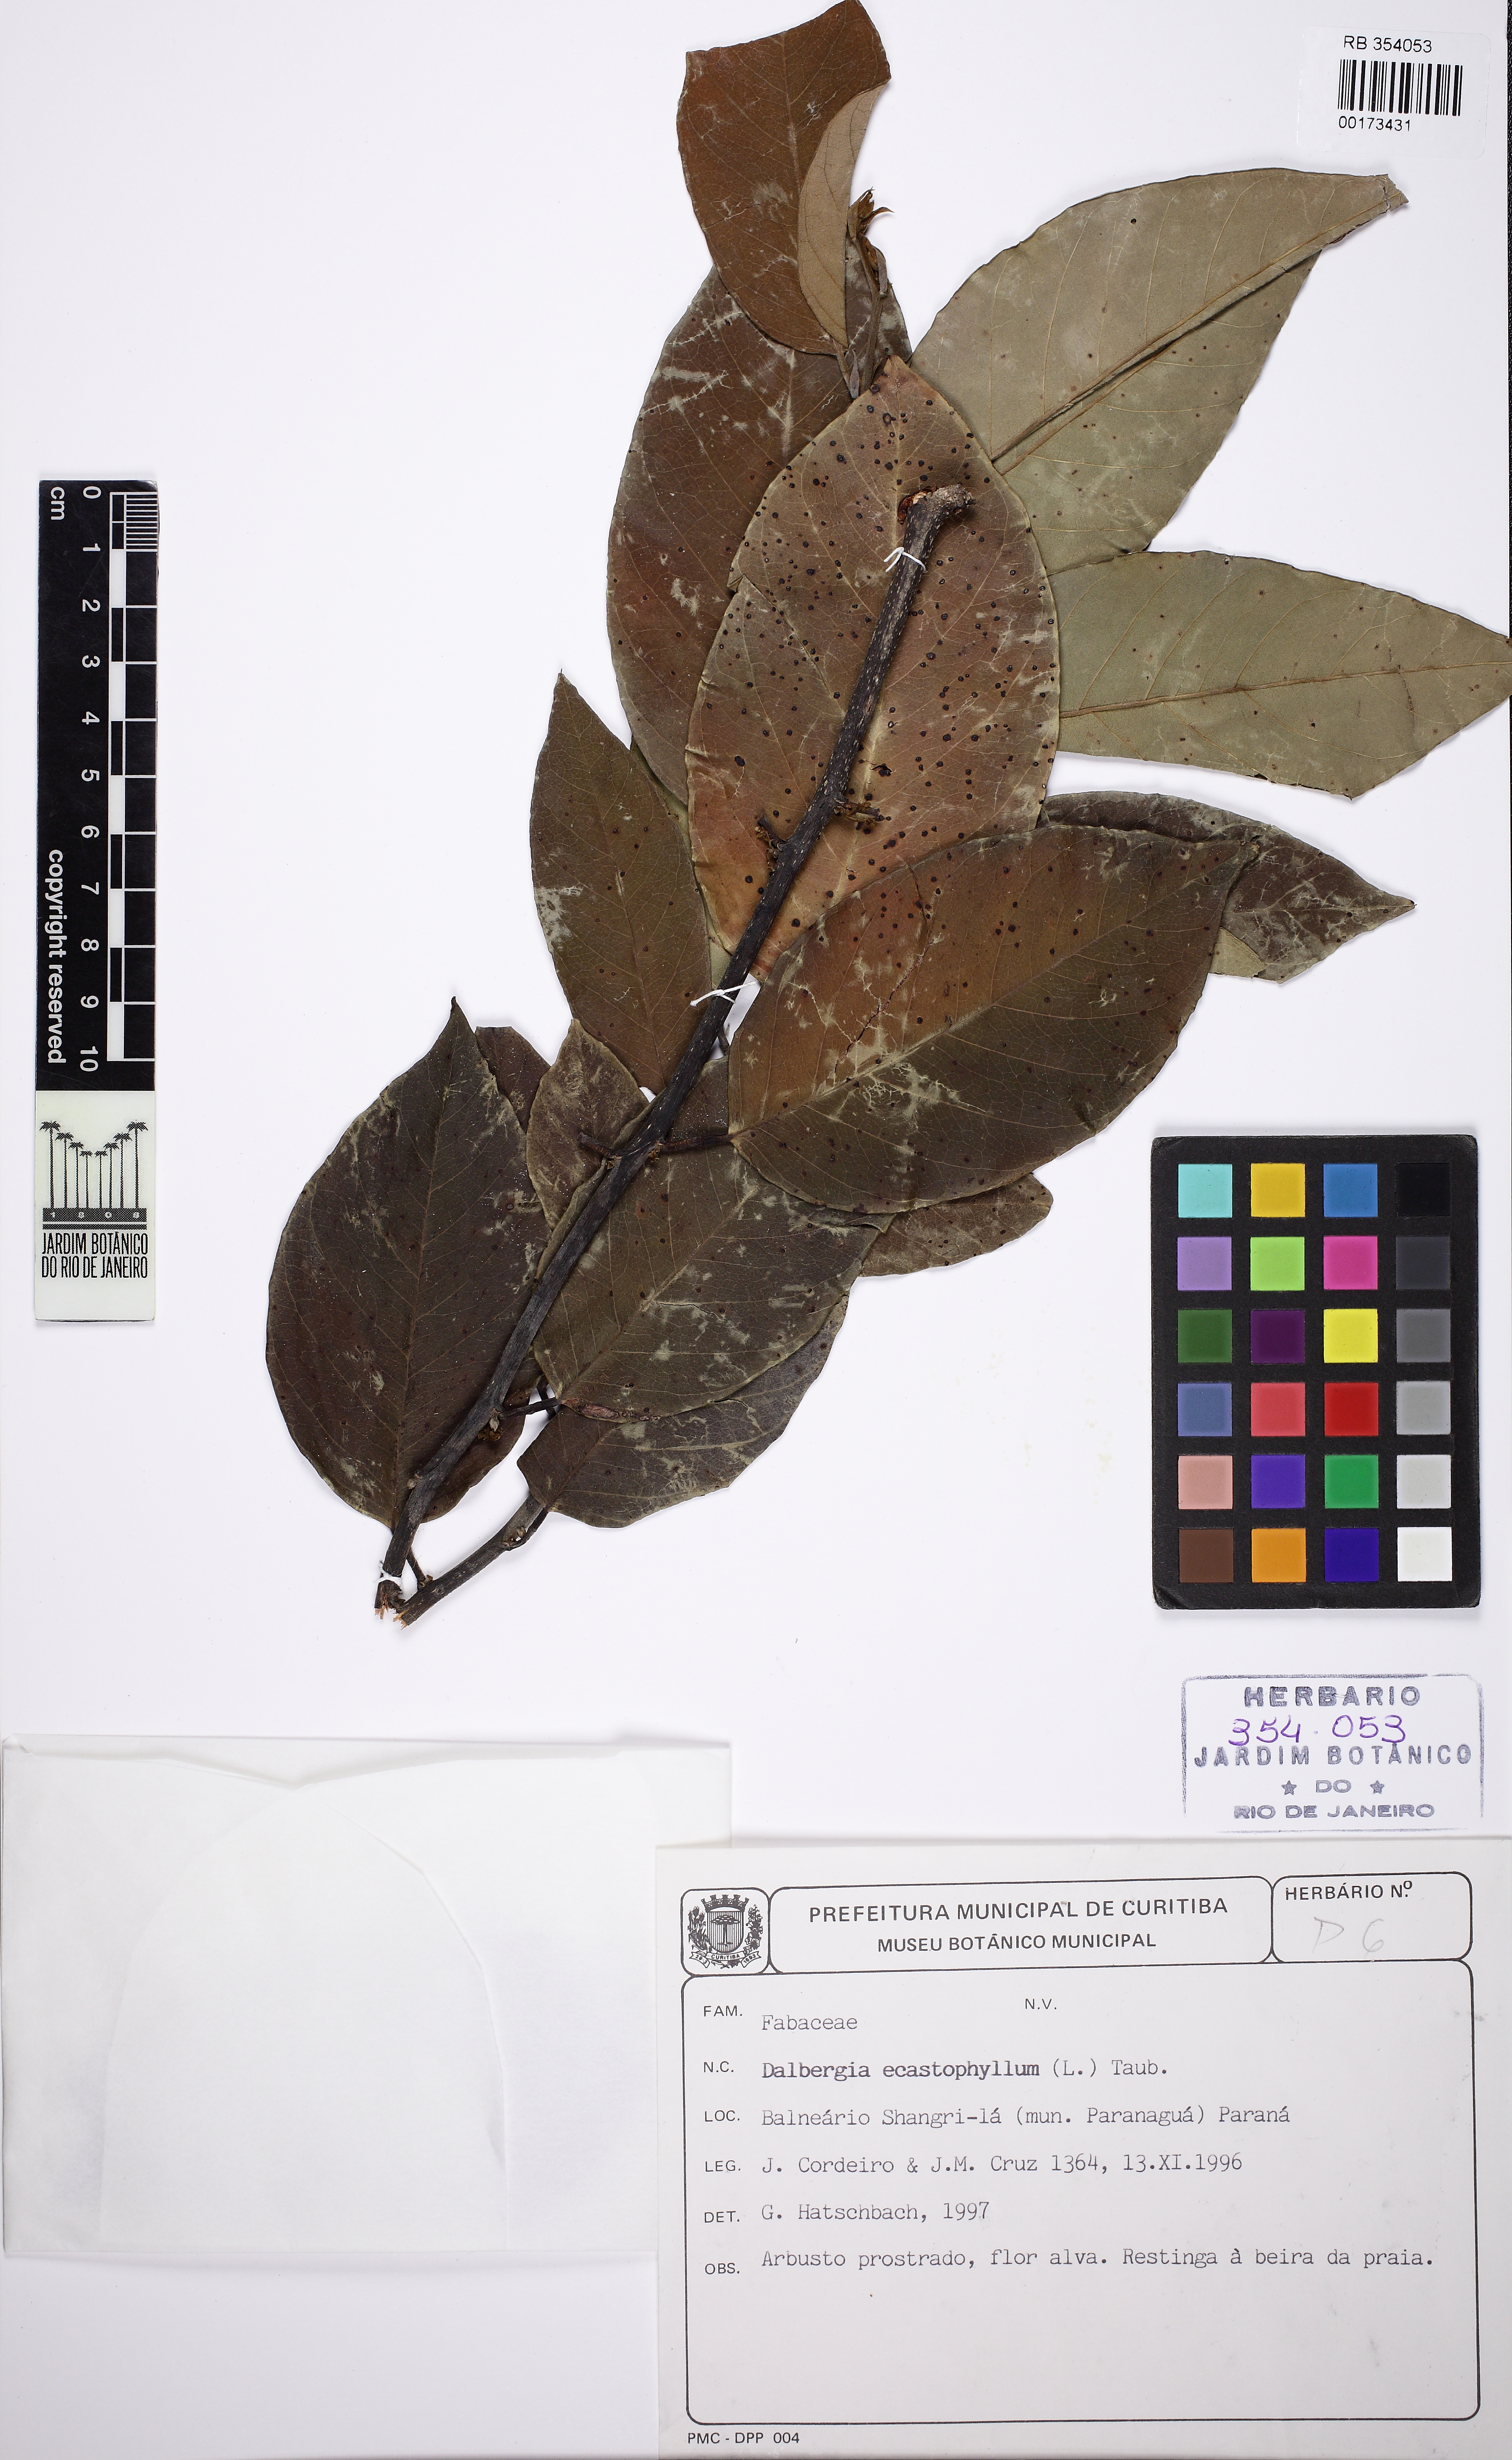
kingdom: Plantae
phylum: Tracheophyta
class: Magnoliopsida
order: Fabales
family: Fabaceae
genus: Dalbergia
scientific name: Dalbergia ecastaphyllum
